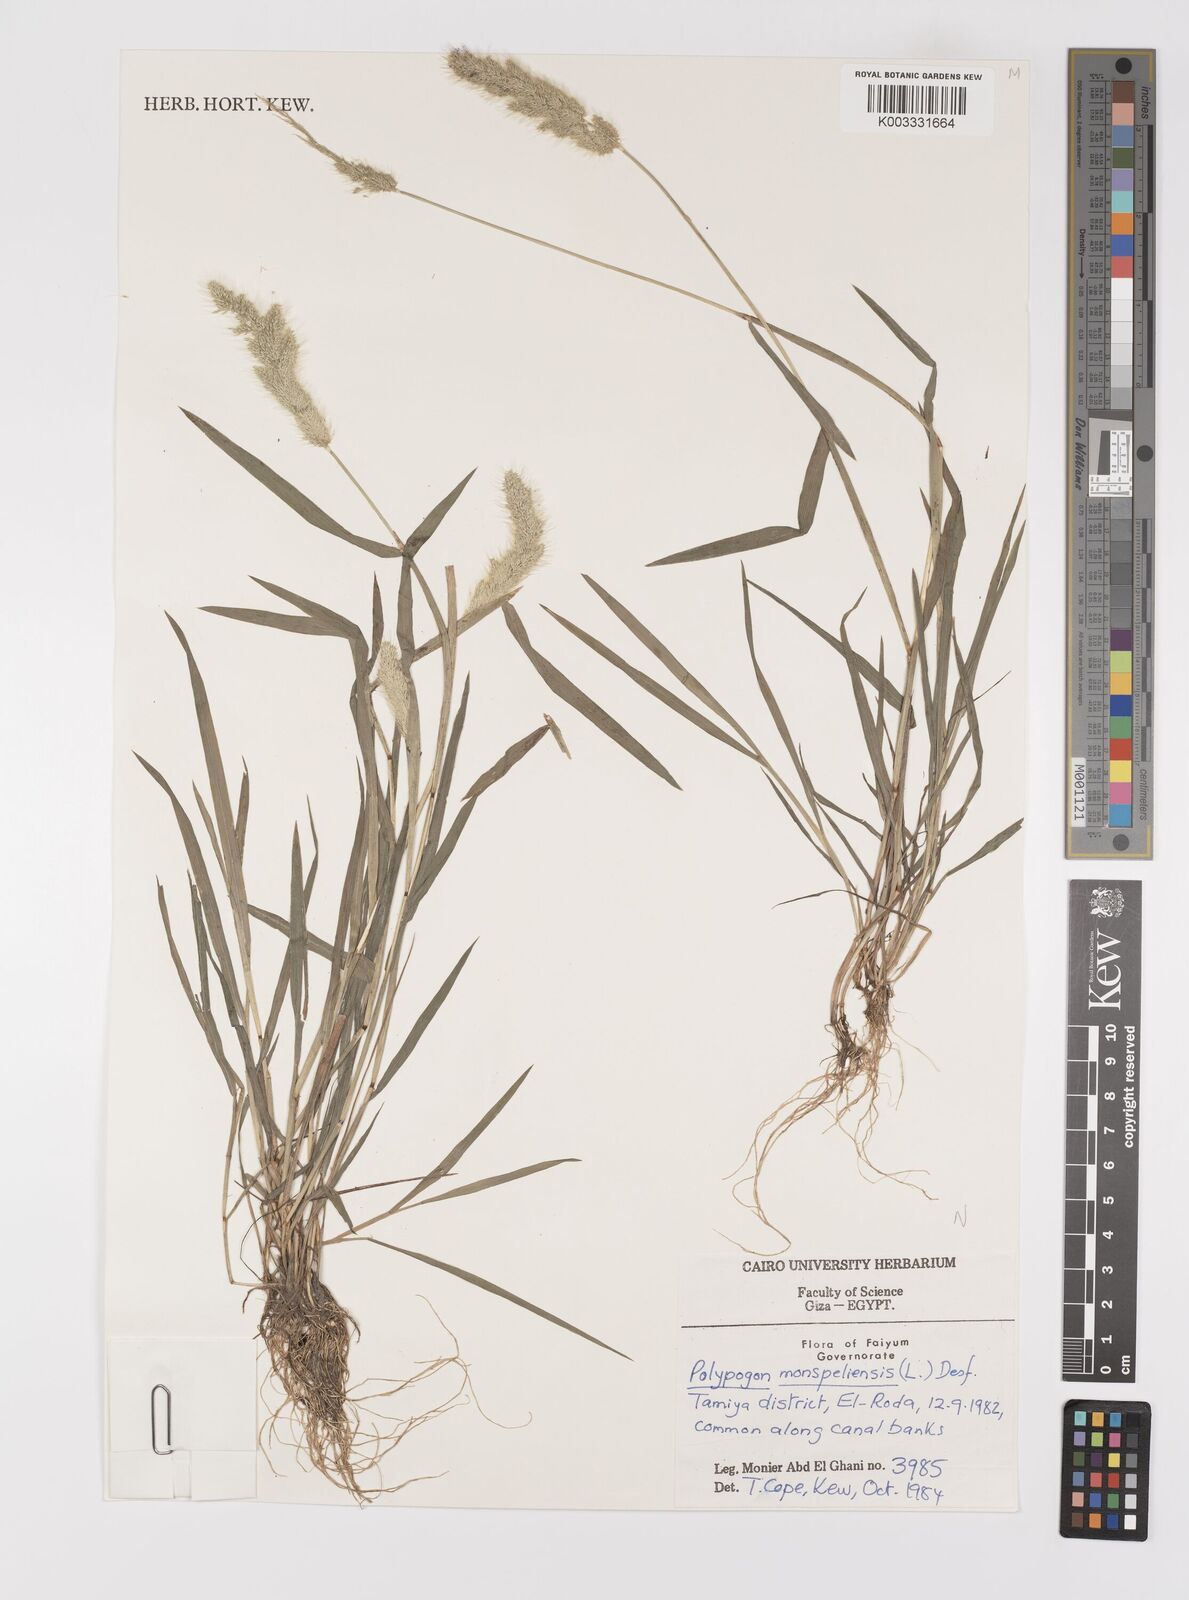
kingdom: Plantae
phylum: Tracheophyta
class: Liliopsida
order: Poales
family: Poaceae
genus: Polypogon
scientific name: Polypogon monspeliensis
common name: Annual rabbitsfoot grass
